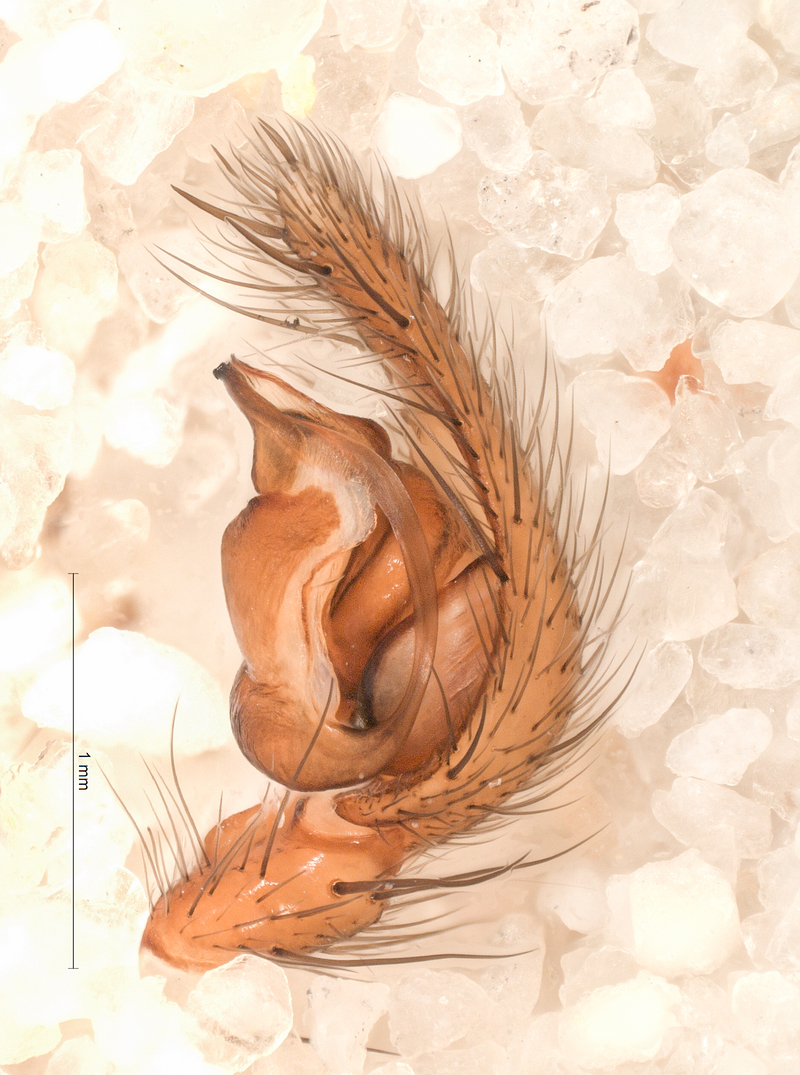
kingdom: Animalia
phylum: Arthropoda
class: Arachnida
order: Araneae
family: Agelenidae
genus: Inermocoelotes
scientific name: Inermocoelotes inermis
